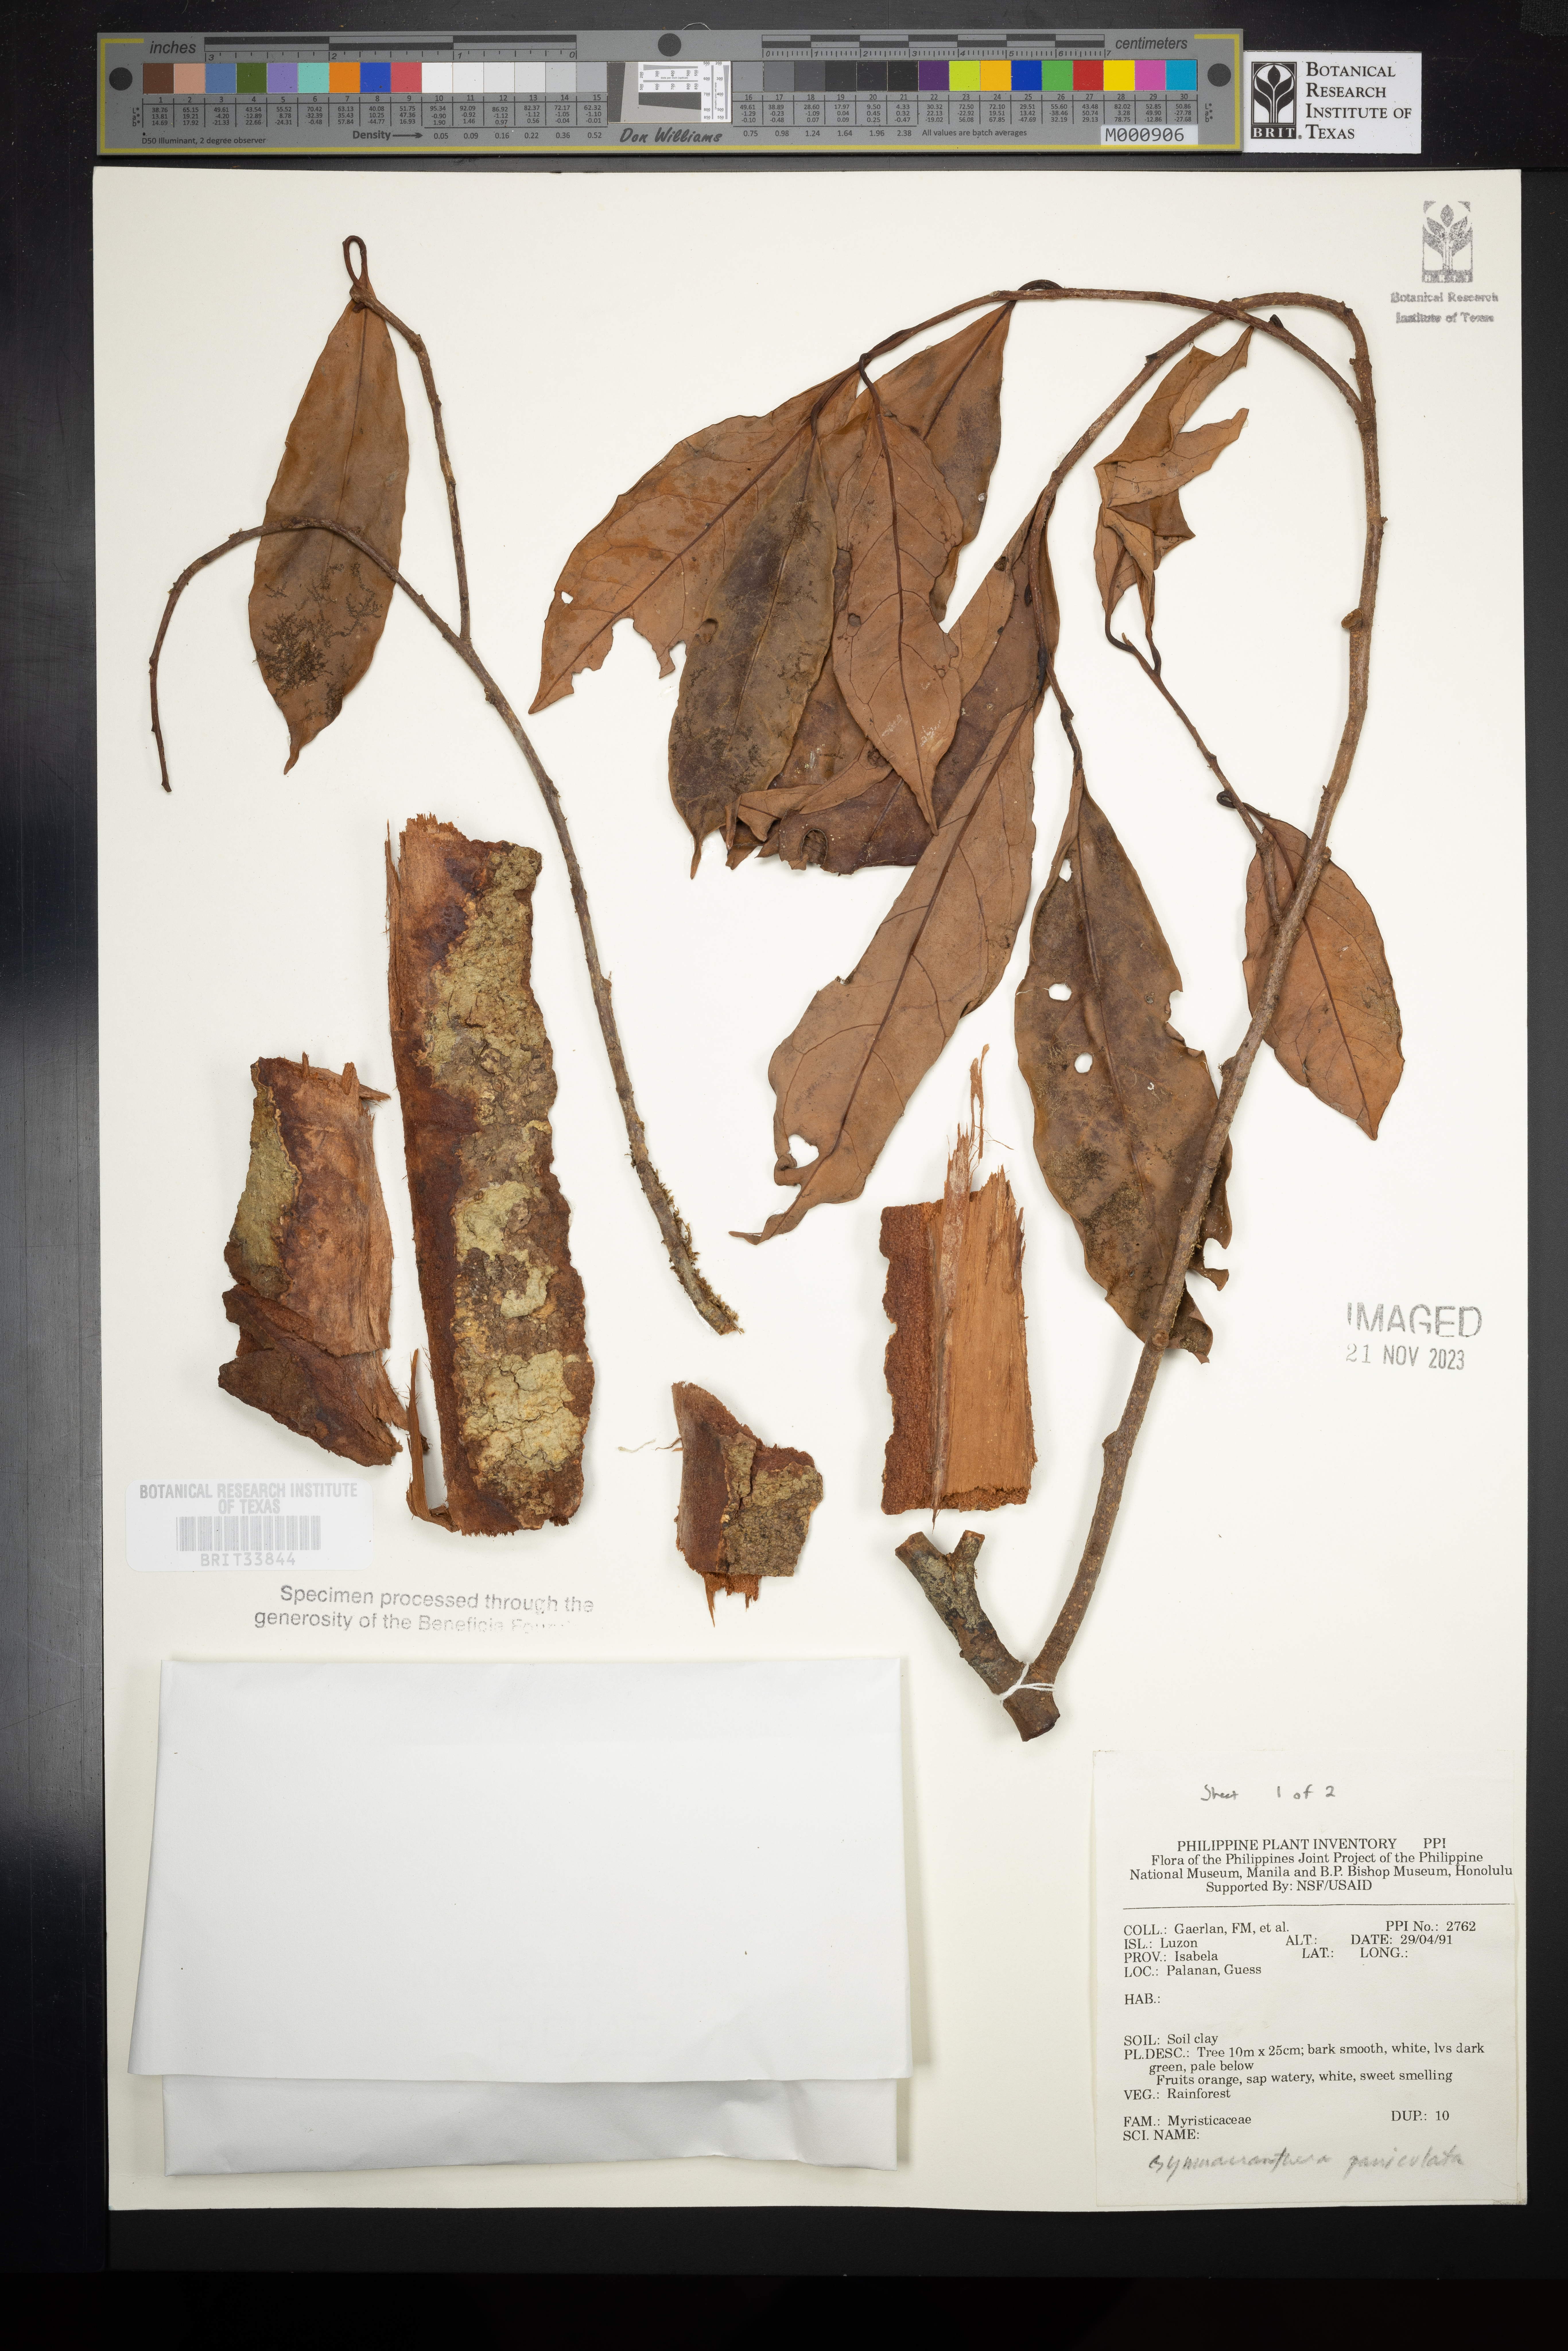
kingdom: Plantae
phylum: Tracheophyta
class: Magnoliopsida
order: Magnoliales
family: Myristicaceae
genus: Gymnacranthera
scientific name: Gymnacranthera
